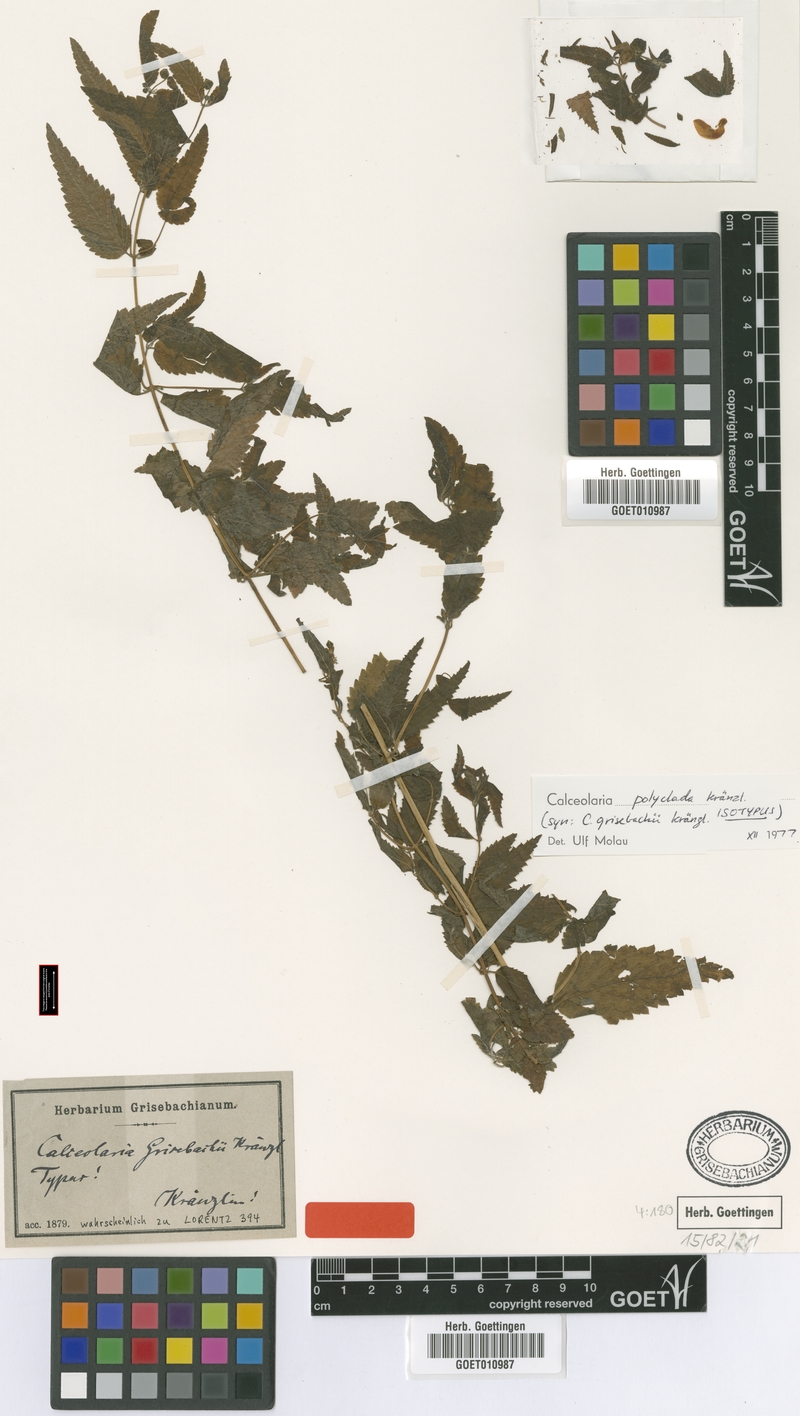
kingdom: Plantae
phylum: Tracheophyta
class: Magnoliopsida
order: Lamiales
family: Calceolariaceae
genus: Calceolaria
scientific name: Calceolaria polyclada
